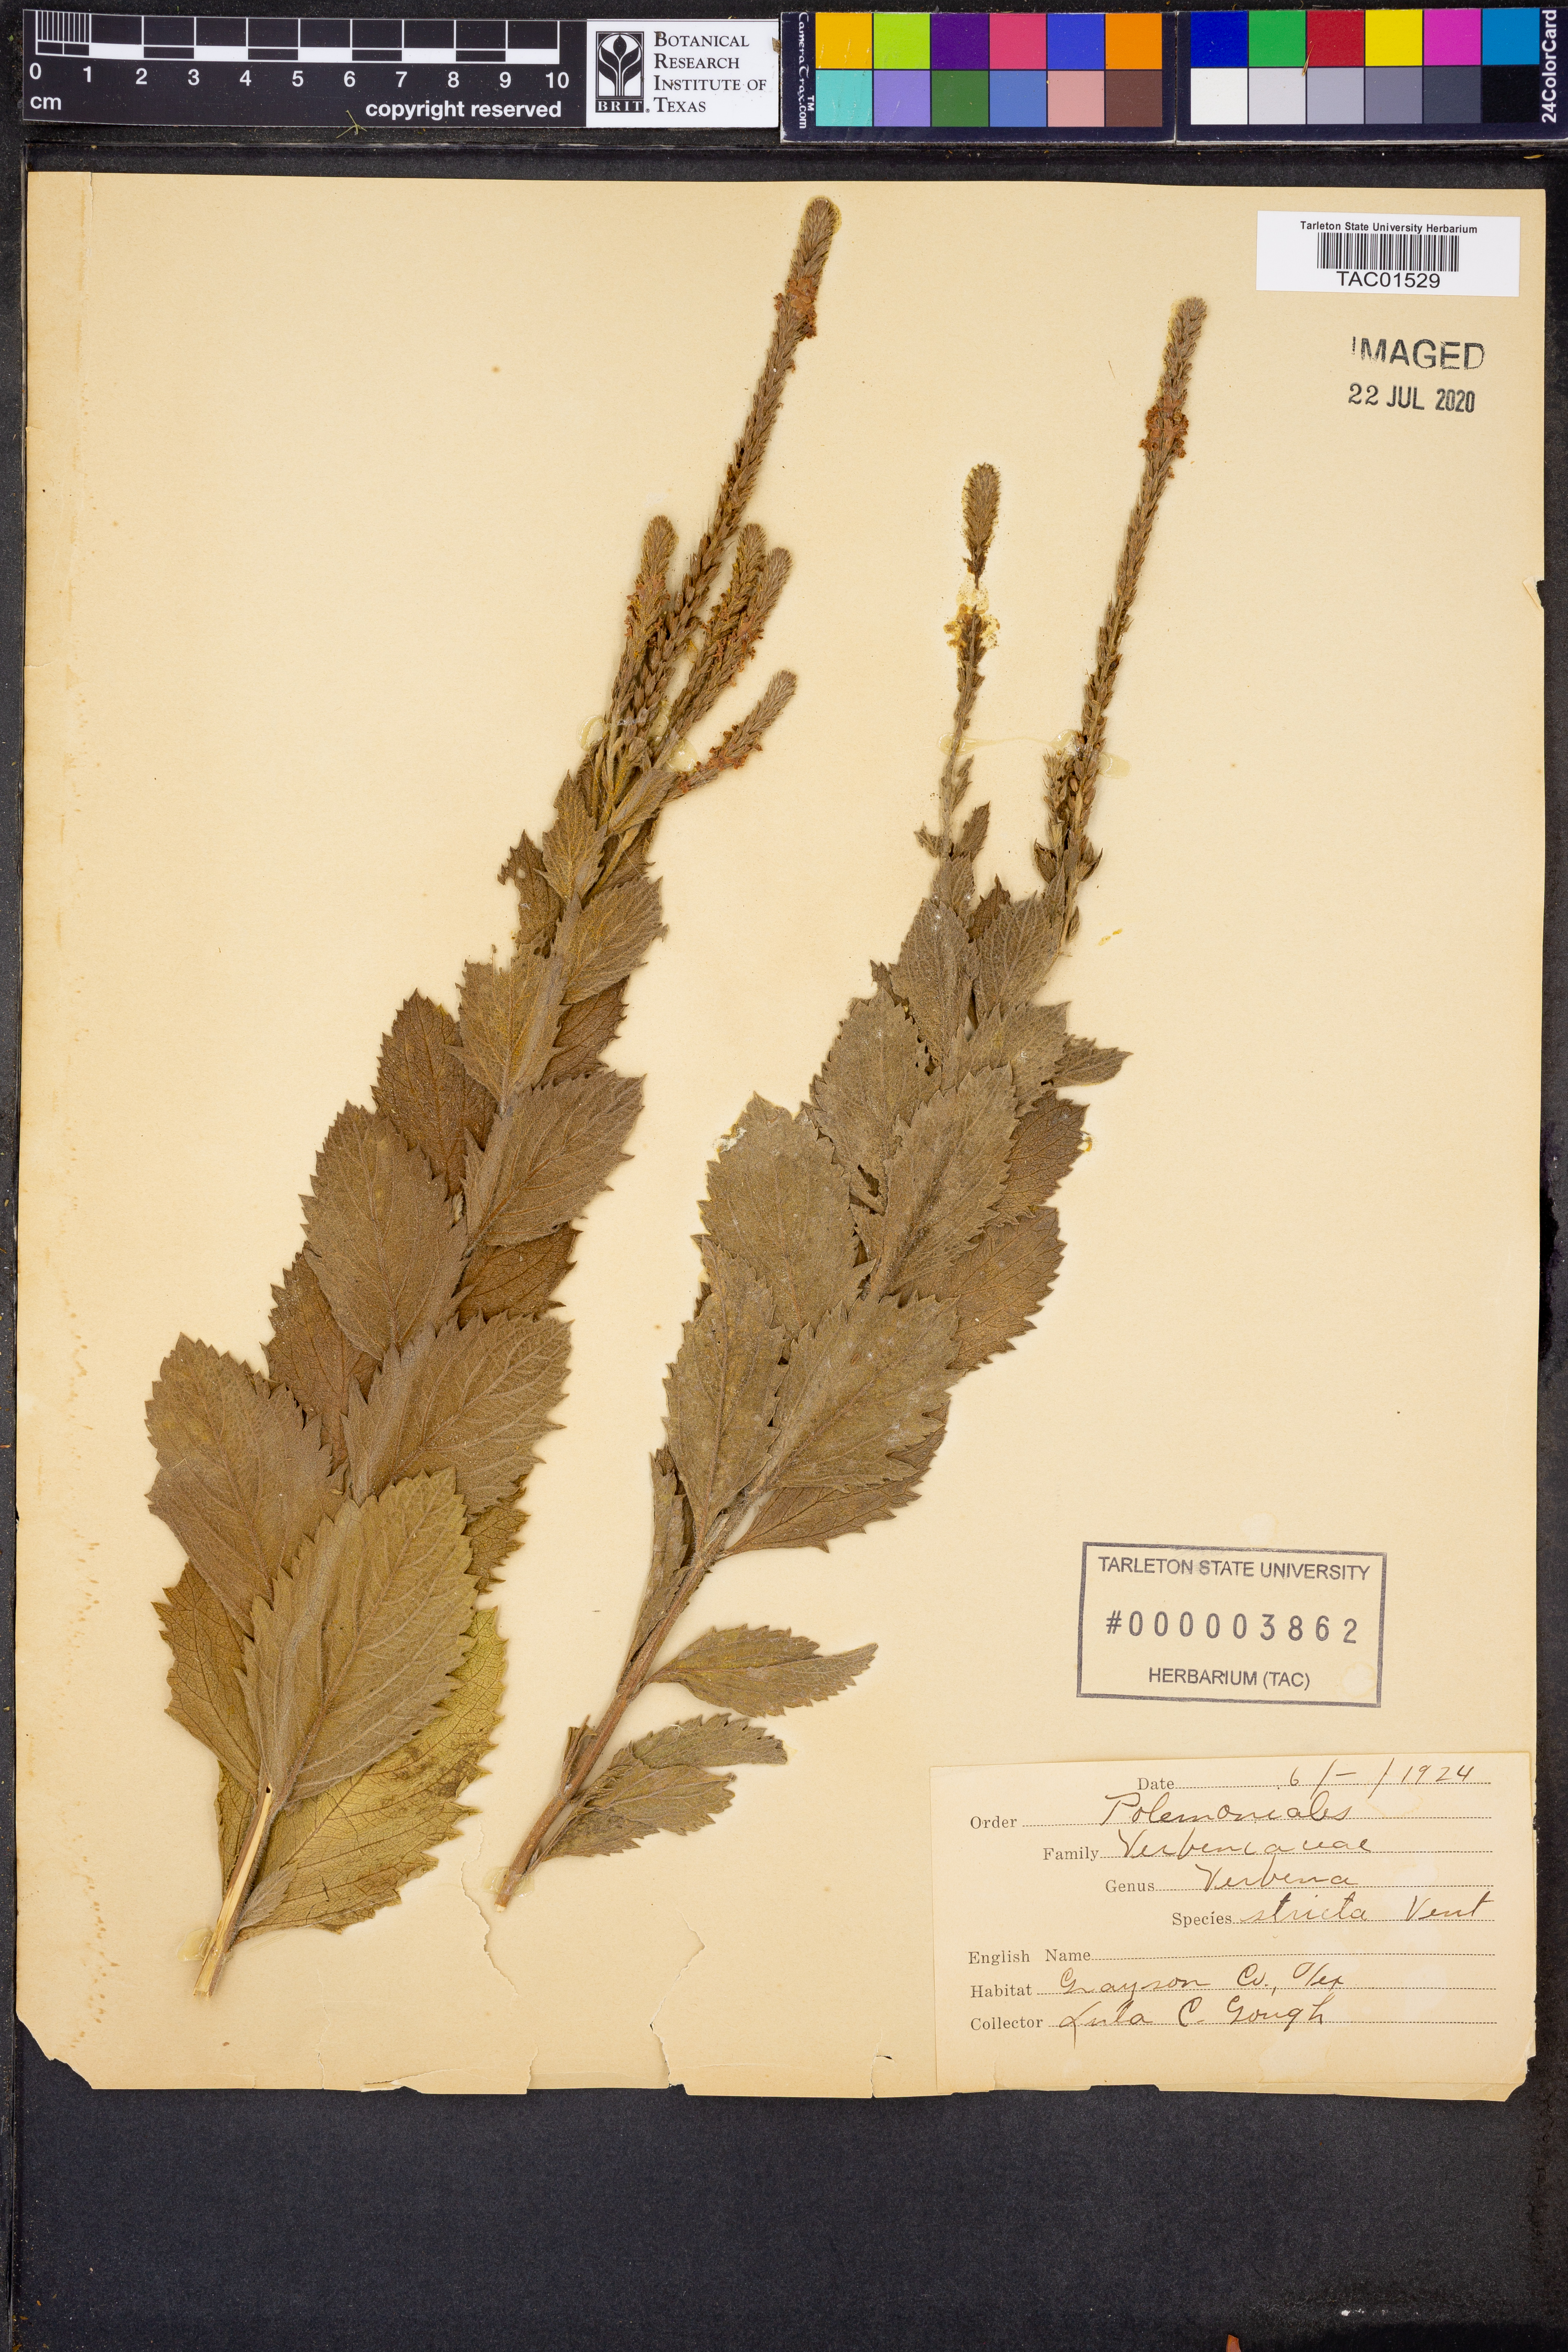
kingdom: Plantae
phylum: Tracheophyta
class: Magnoliopsida
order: Lamiales
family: Verbenaceae
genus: Verbena
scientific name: Verbena stricta
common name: Hoary vervain
